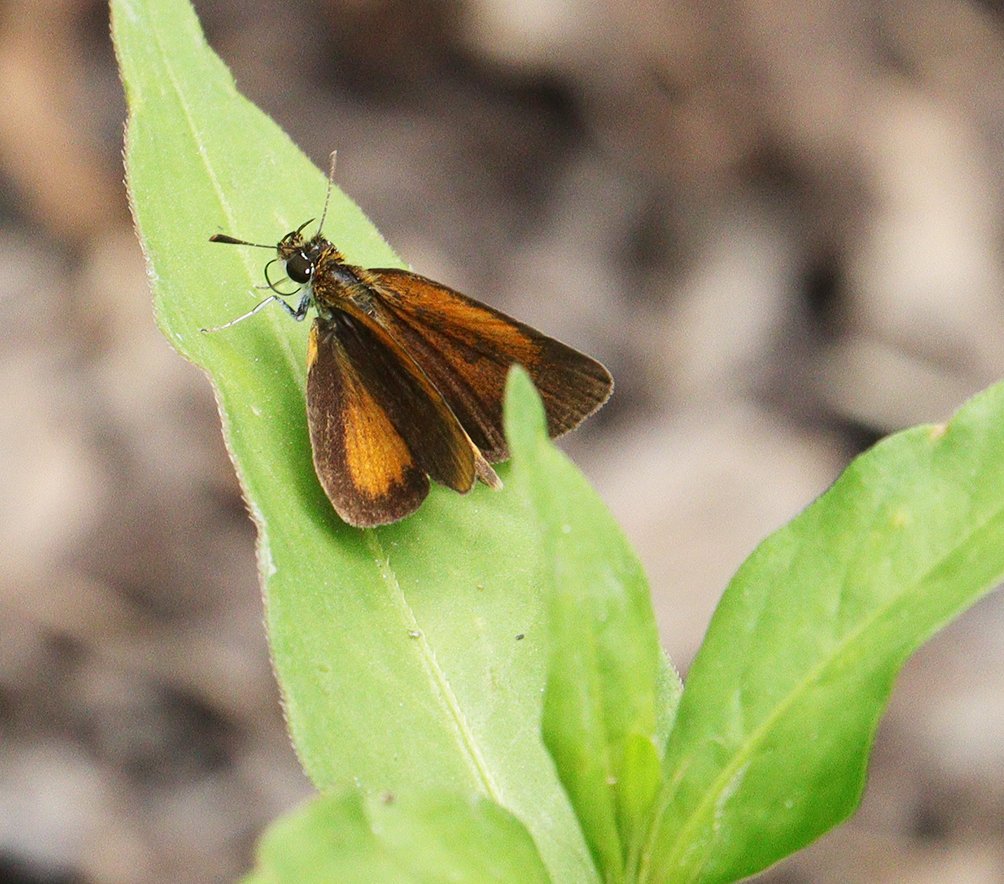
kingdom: Animalia
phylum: Arthropoda
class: Insecta
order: Lepidoptera
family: Hesperiidae
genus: Ancyloxypha
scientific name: Ancyloxypha numitor
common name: Least Skipper
